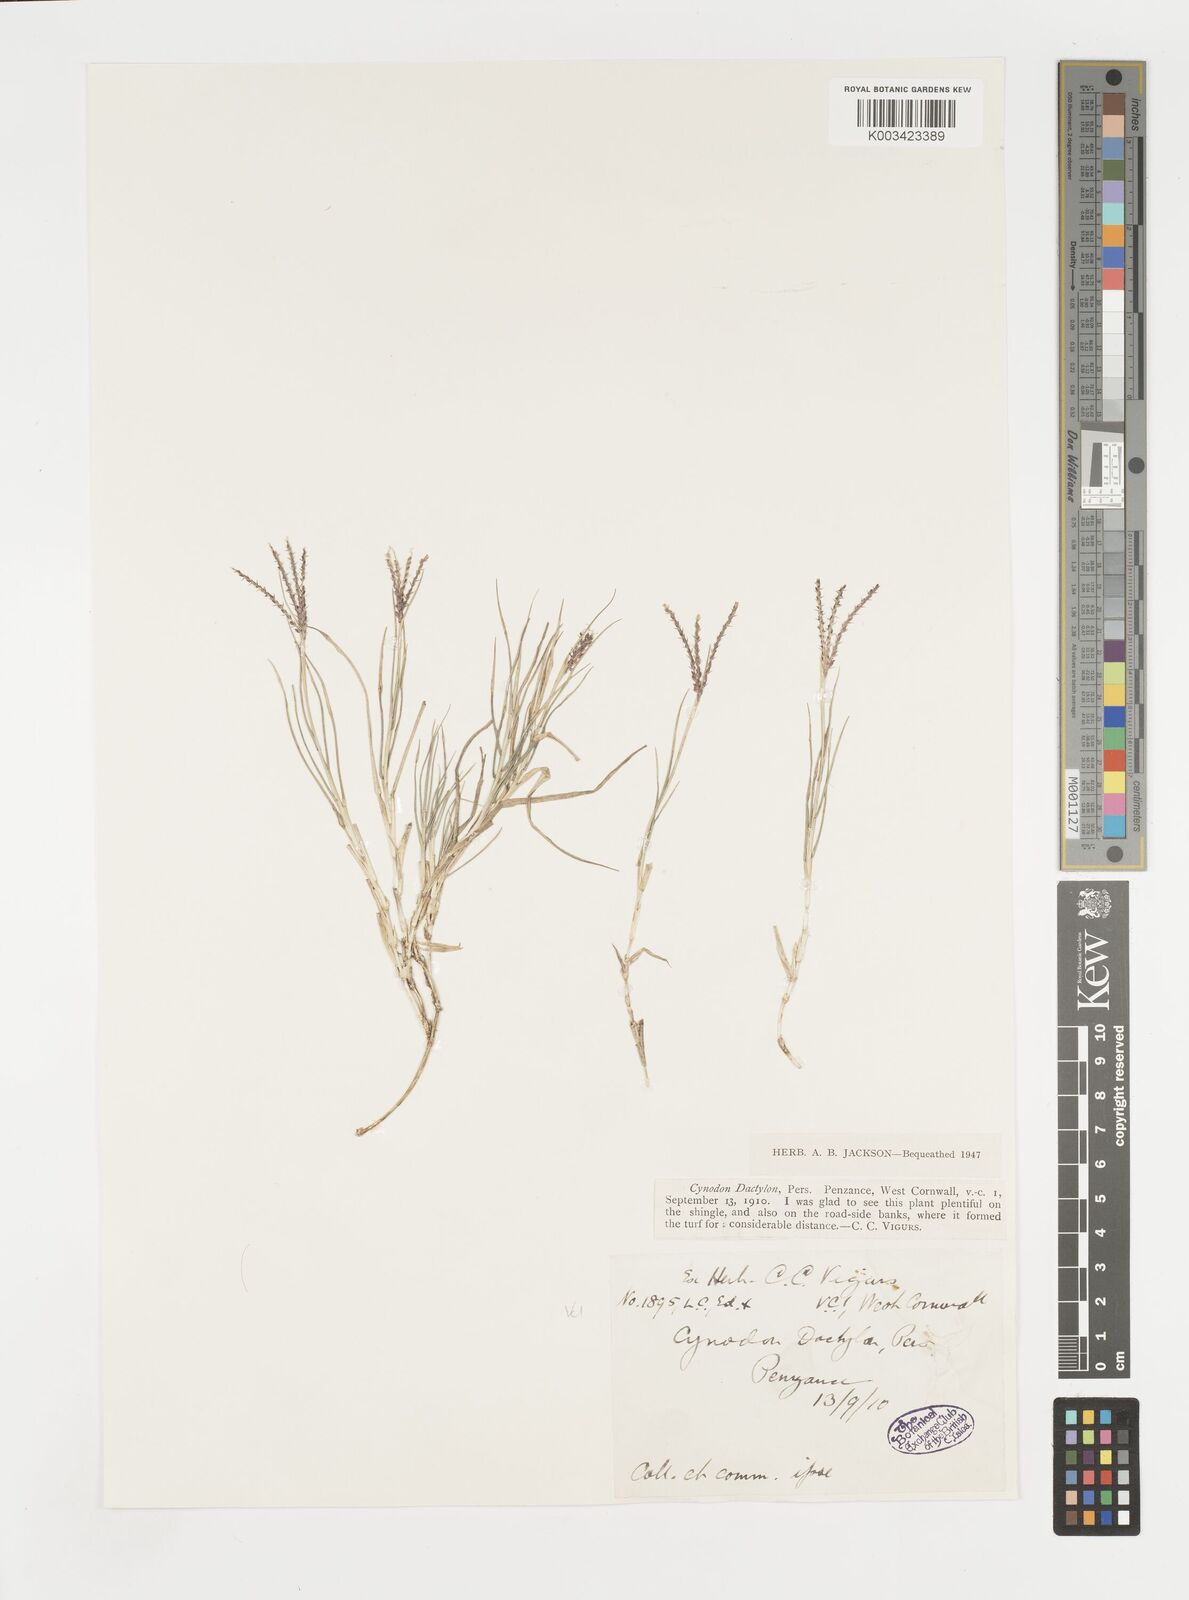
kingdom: Plantae
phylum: Tracheophyta
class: Liliopsida
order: Poales
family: Poaceae
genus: Cynodon
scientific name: Cynodon dactylon
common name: Bermuda grass
